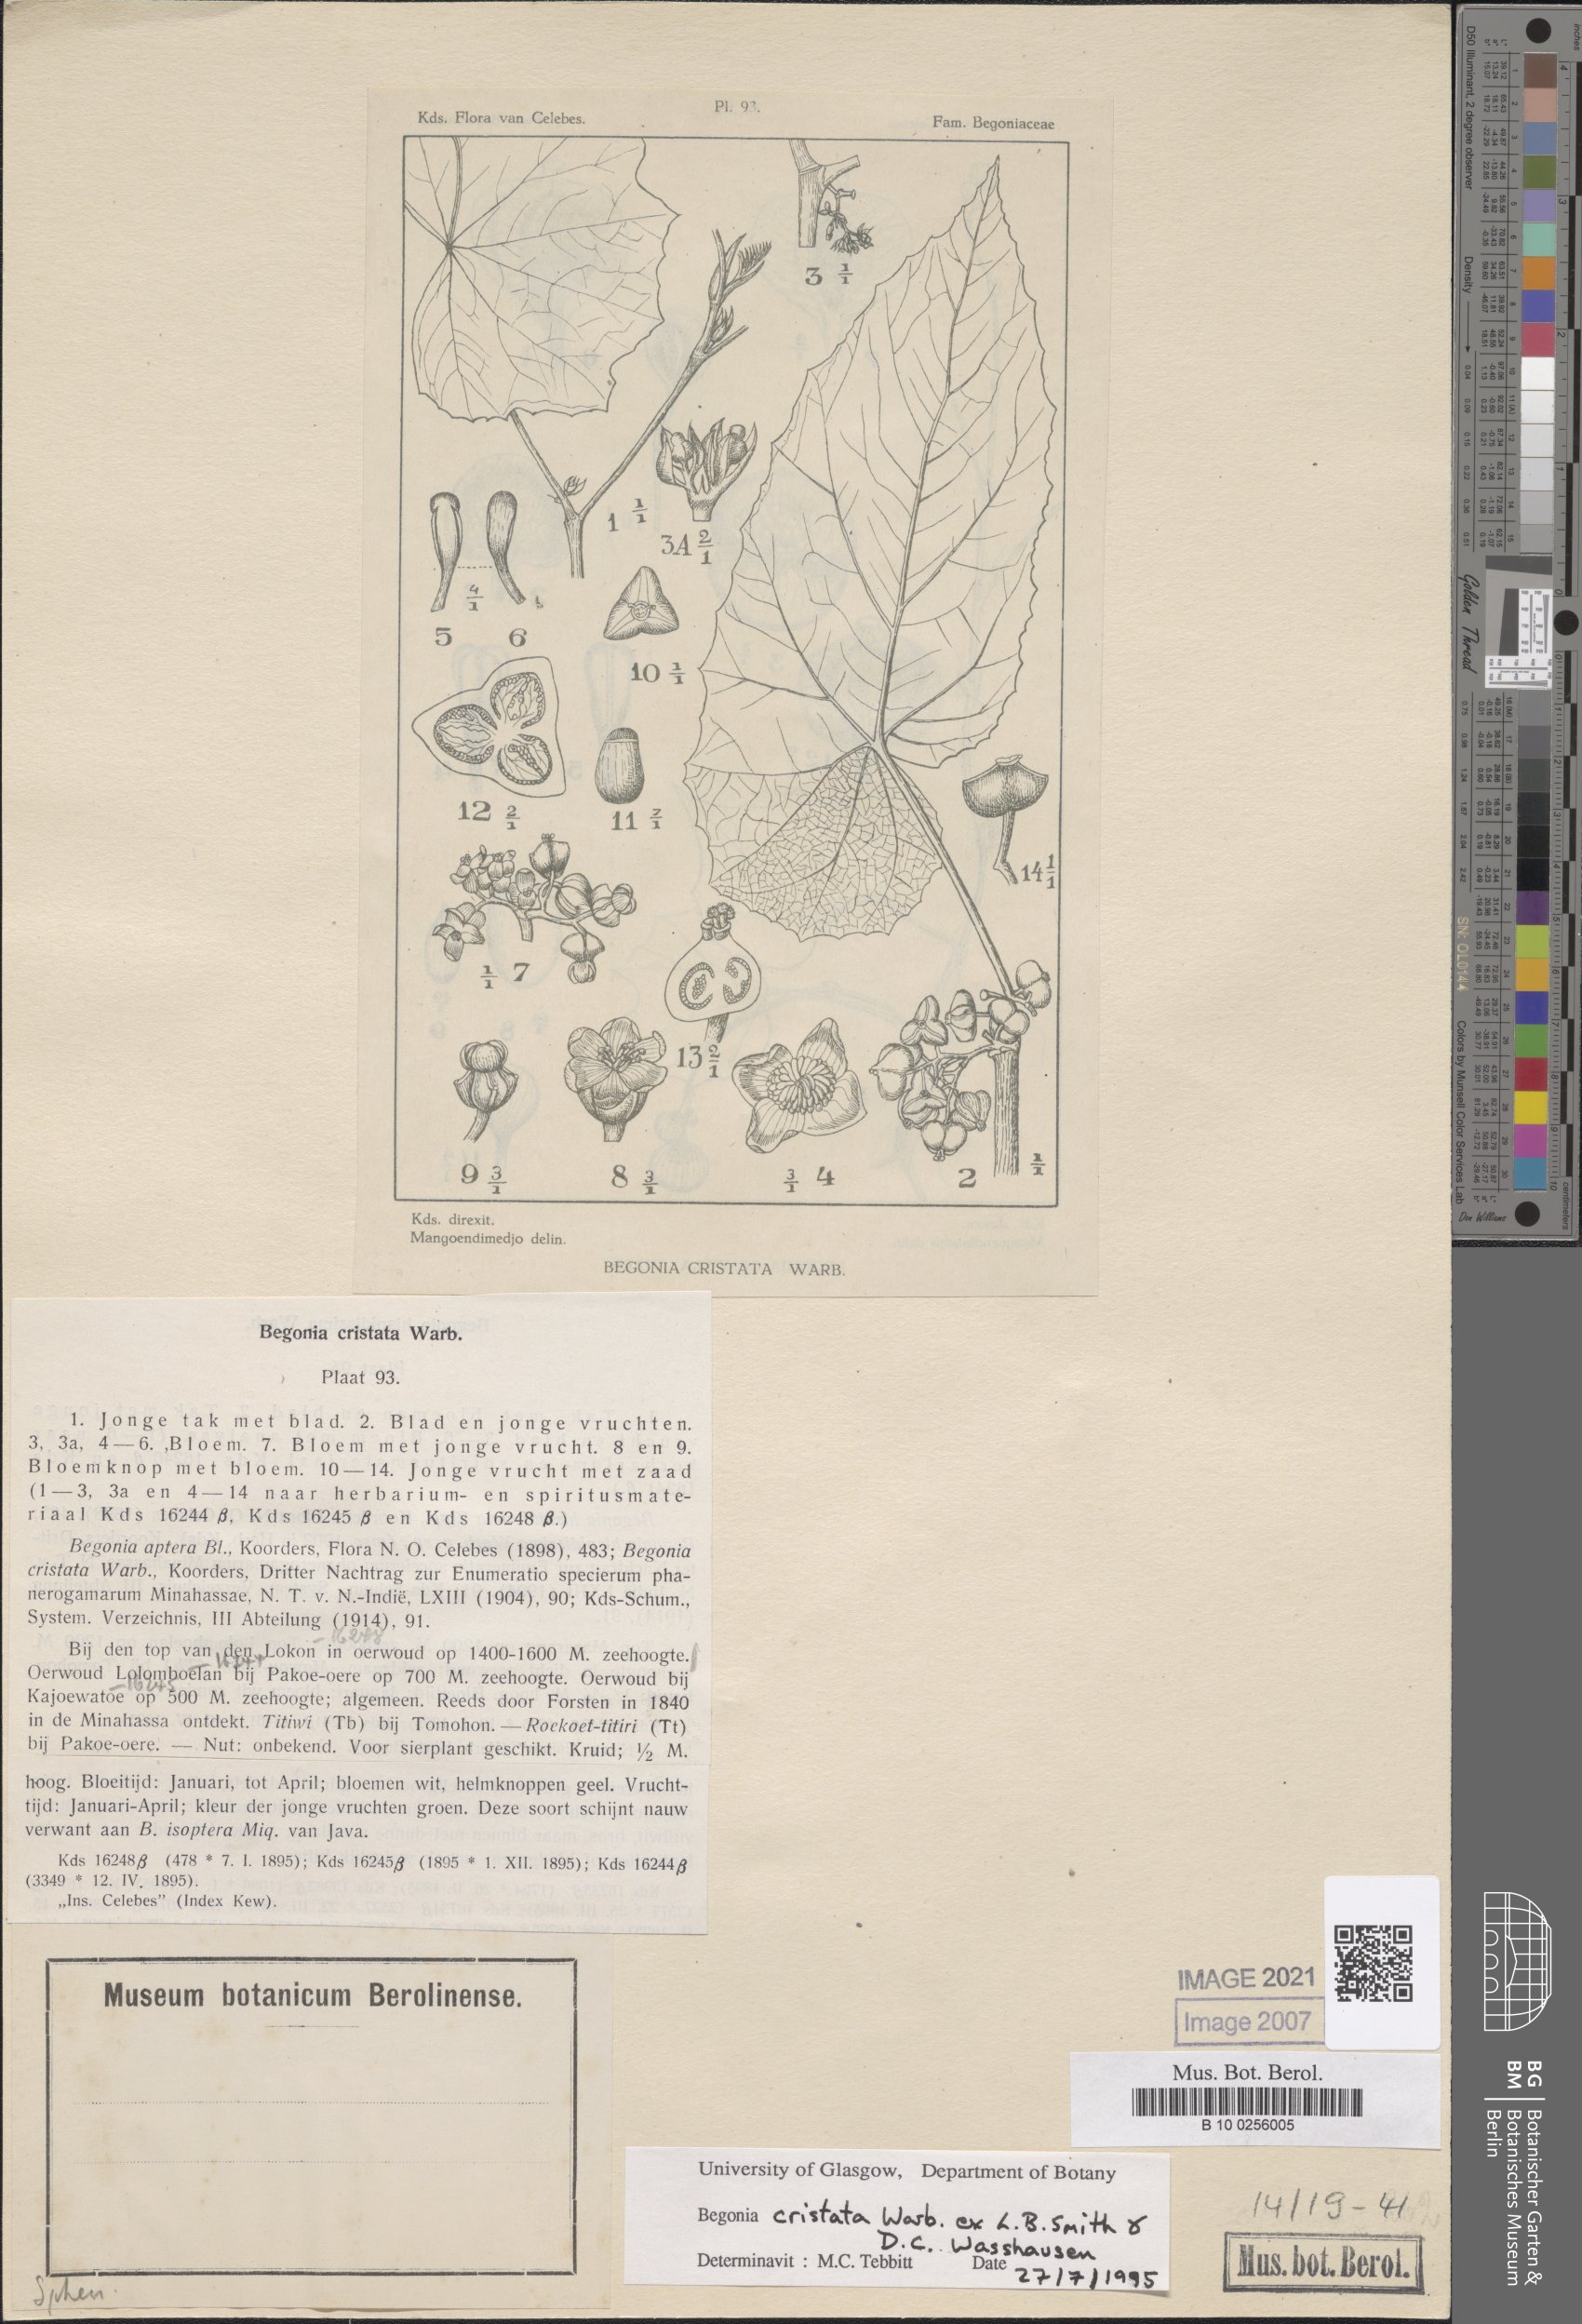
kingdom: Plantae
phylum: Tracheophyta
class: Magnoliopsida
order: Cucurbitales
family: Begoniaceae
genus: Begonia
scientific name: Begonia aptera
